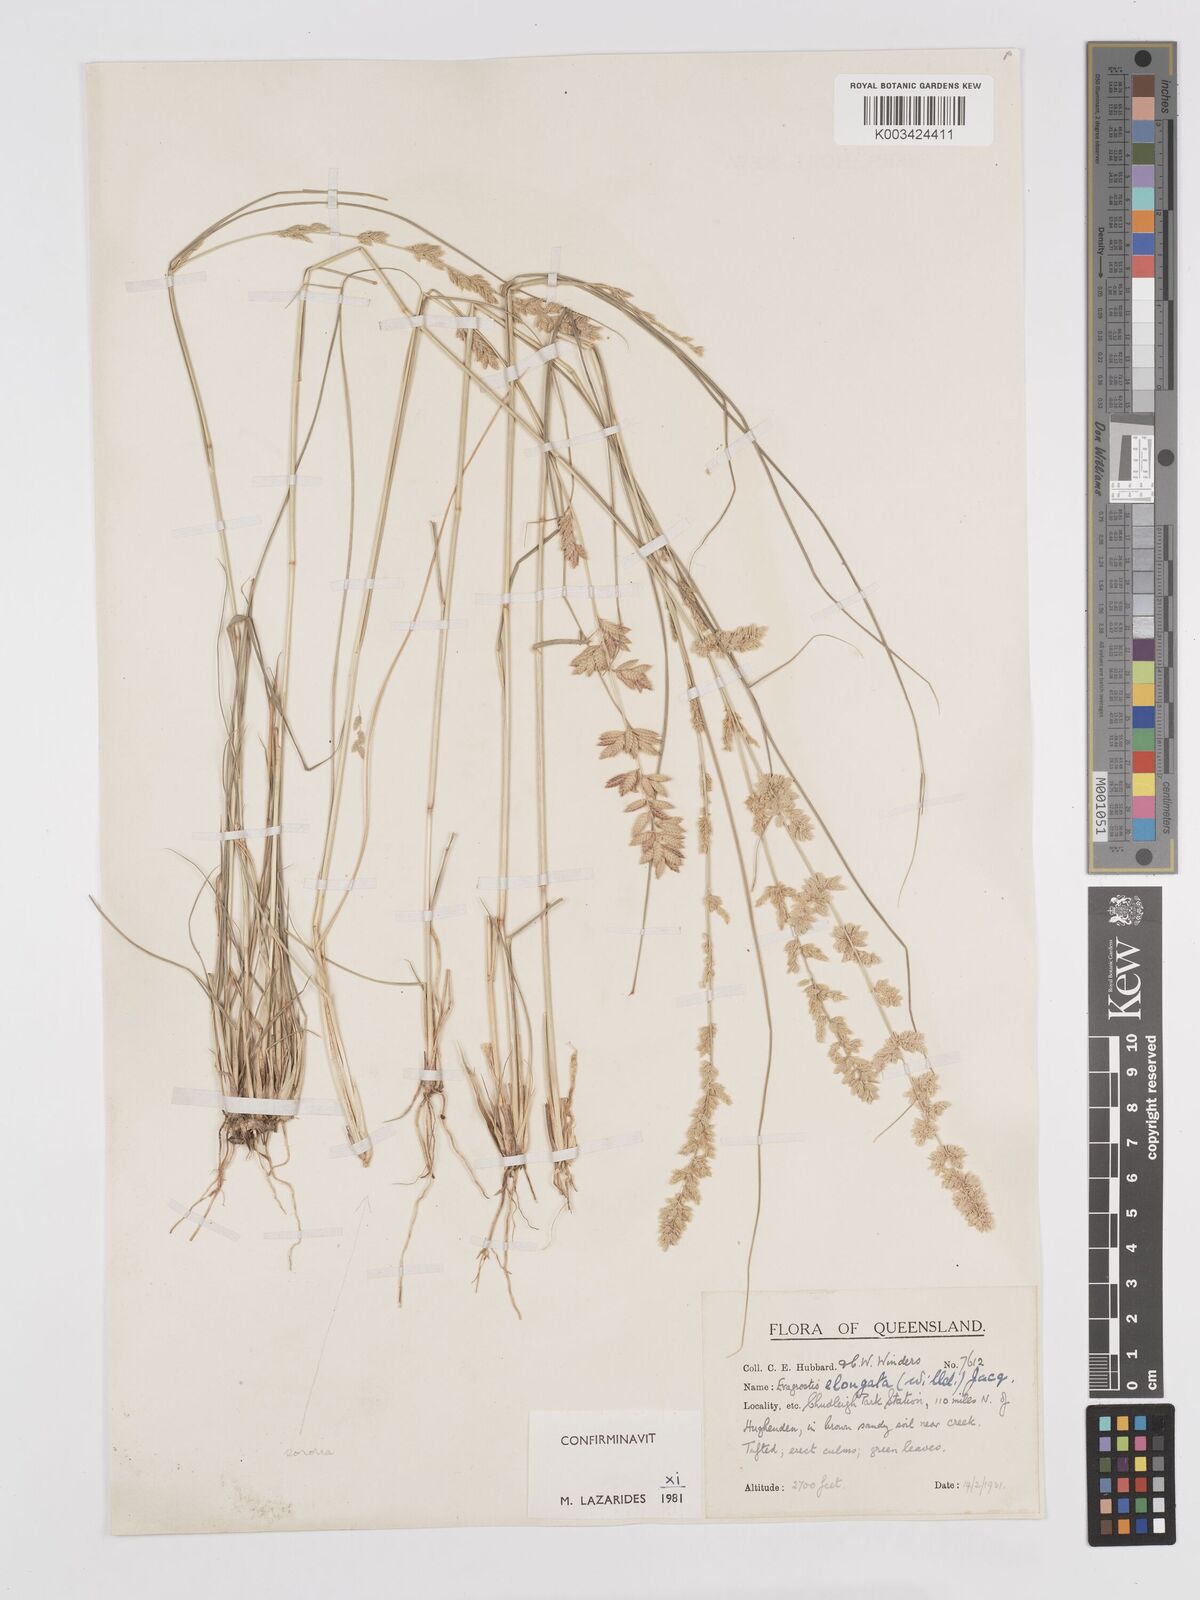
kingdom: Plantae
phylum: Tracheophyta
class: Liliopsida
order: Poales
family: Poaceae
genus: Eragrostis
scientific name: Eragrostis elongata
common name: Long lovegrass
